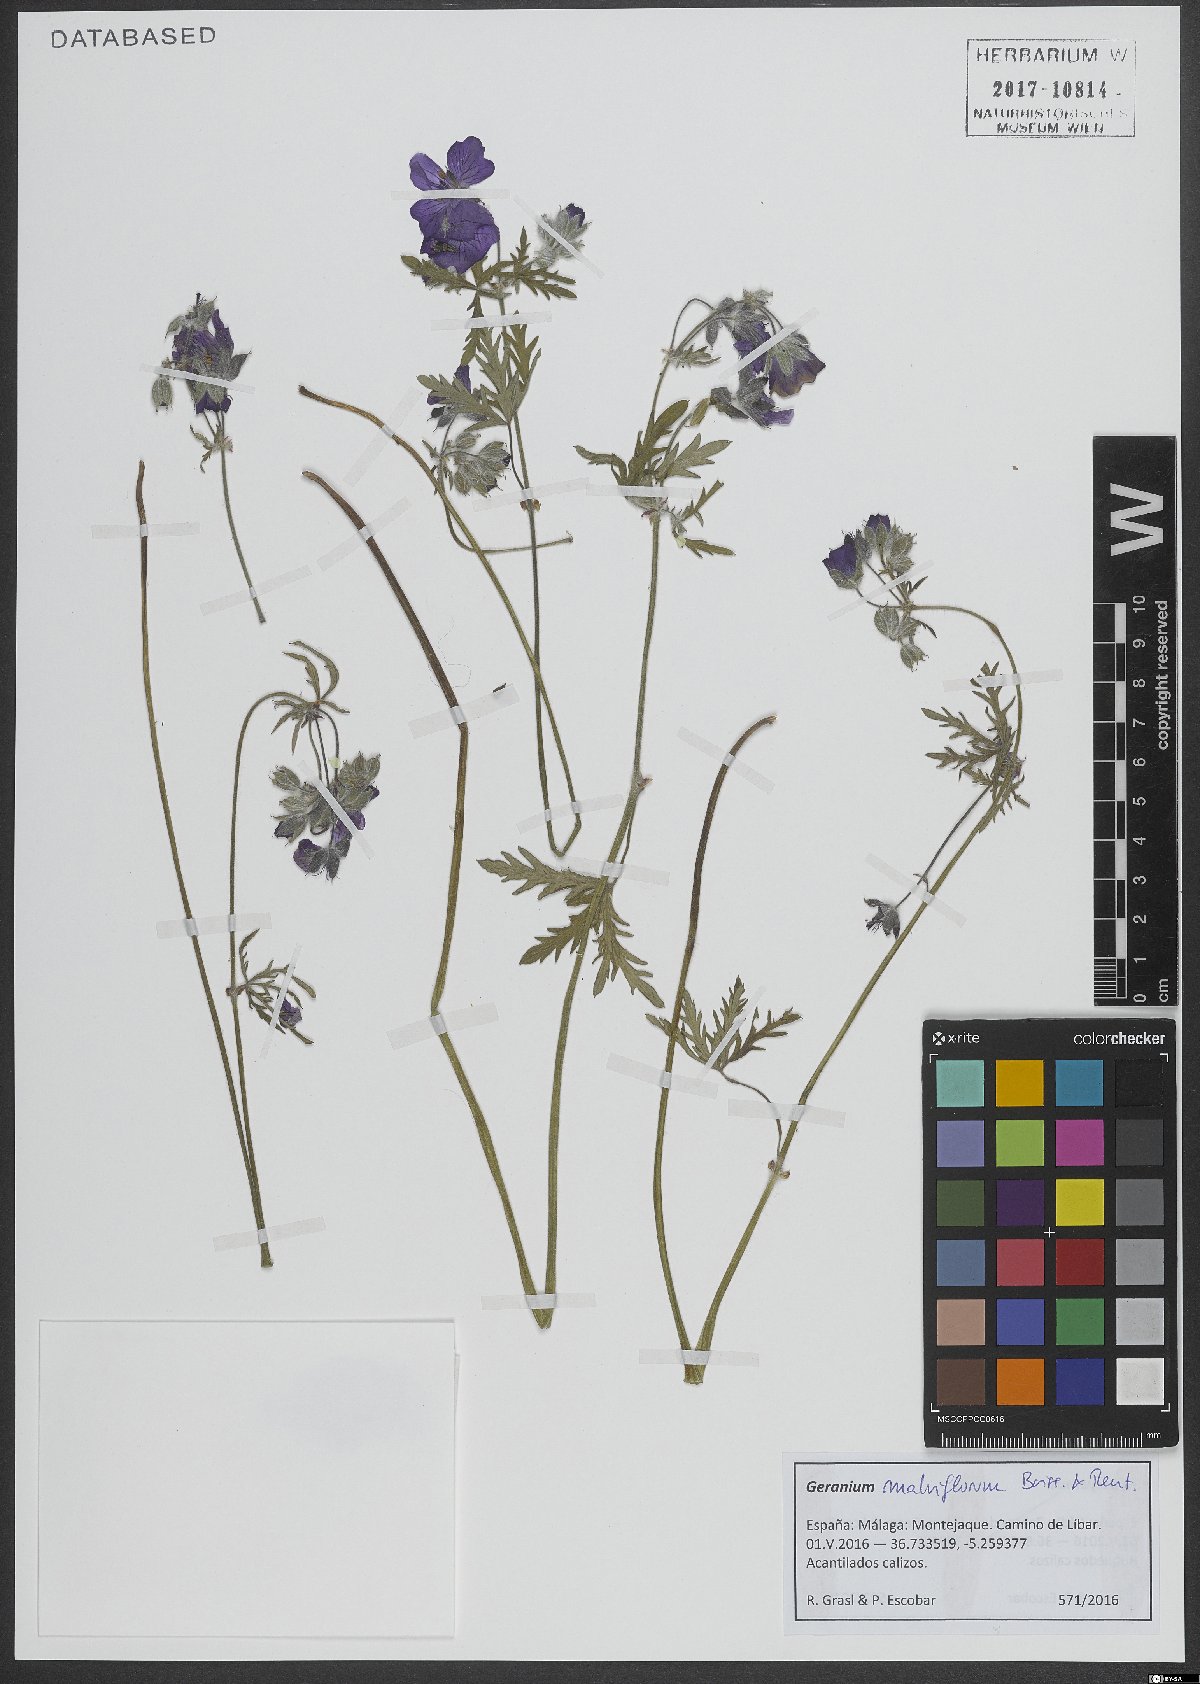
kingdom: Plantae
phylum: Tracheophyta
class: Magnoliopsida
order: Geraniales
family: Geraniaceae
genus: Geranium
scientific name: Geranium malviflorum
